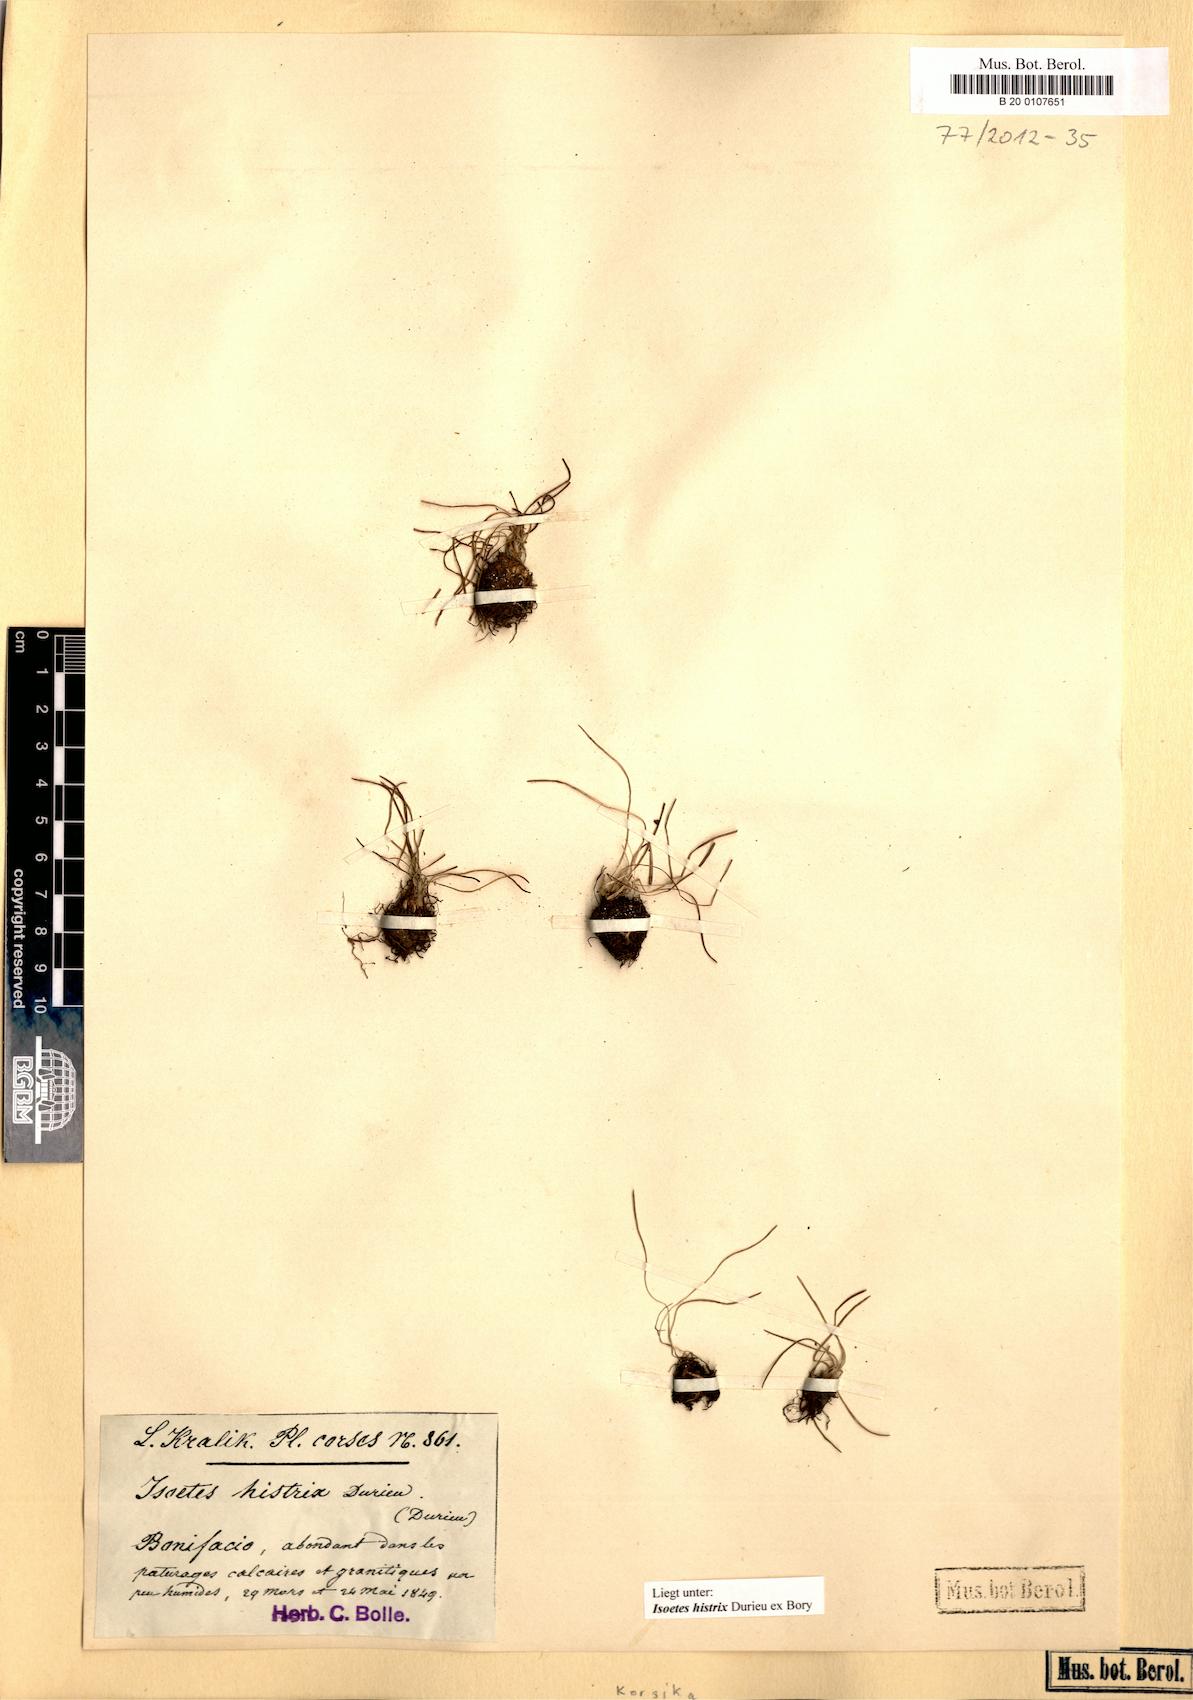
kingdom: Plantae
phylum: Tracheophyta
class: Lycopodiopsida
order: Isoetales
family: Isoetaceae
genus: Isoetes
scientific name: Isoetes histrix
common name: Land quillwort
